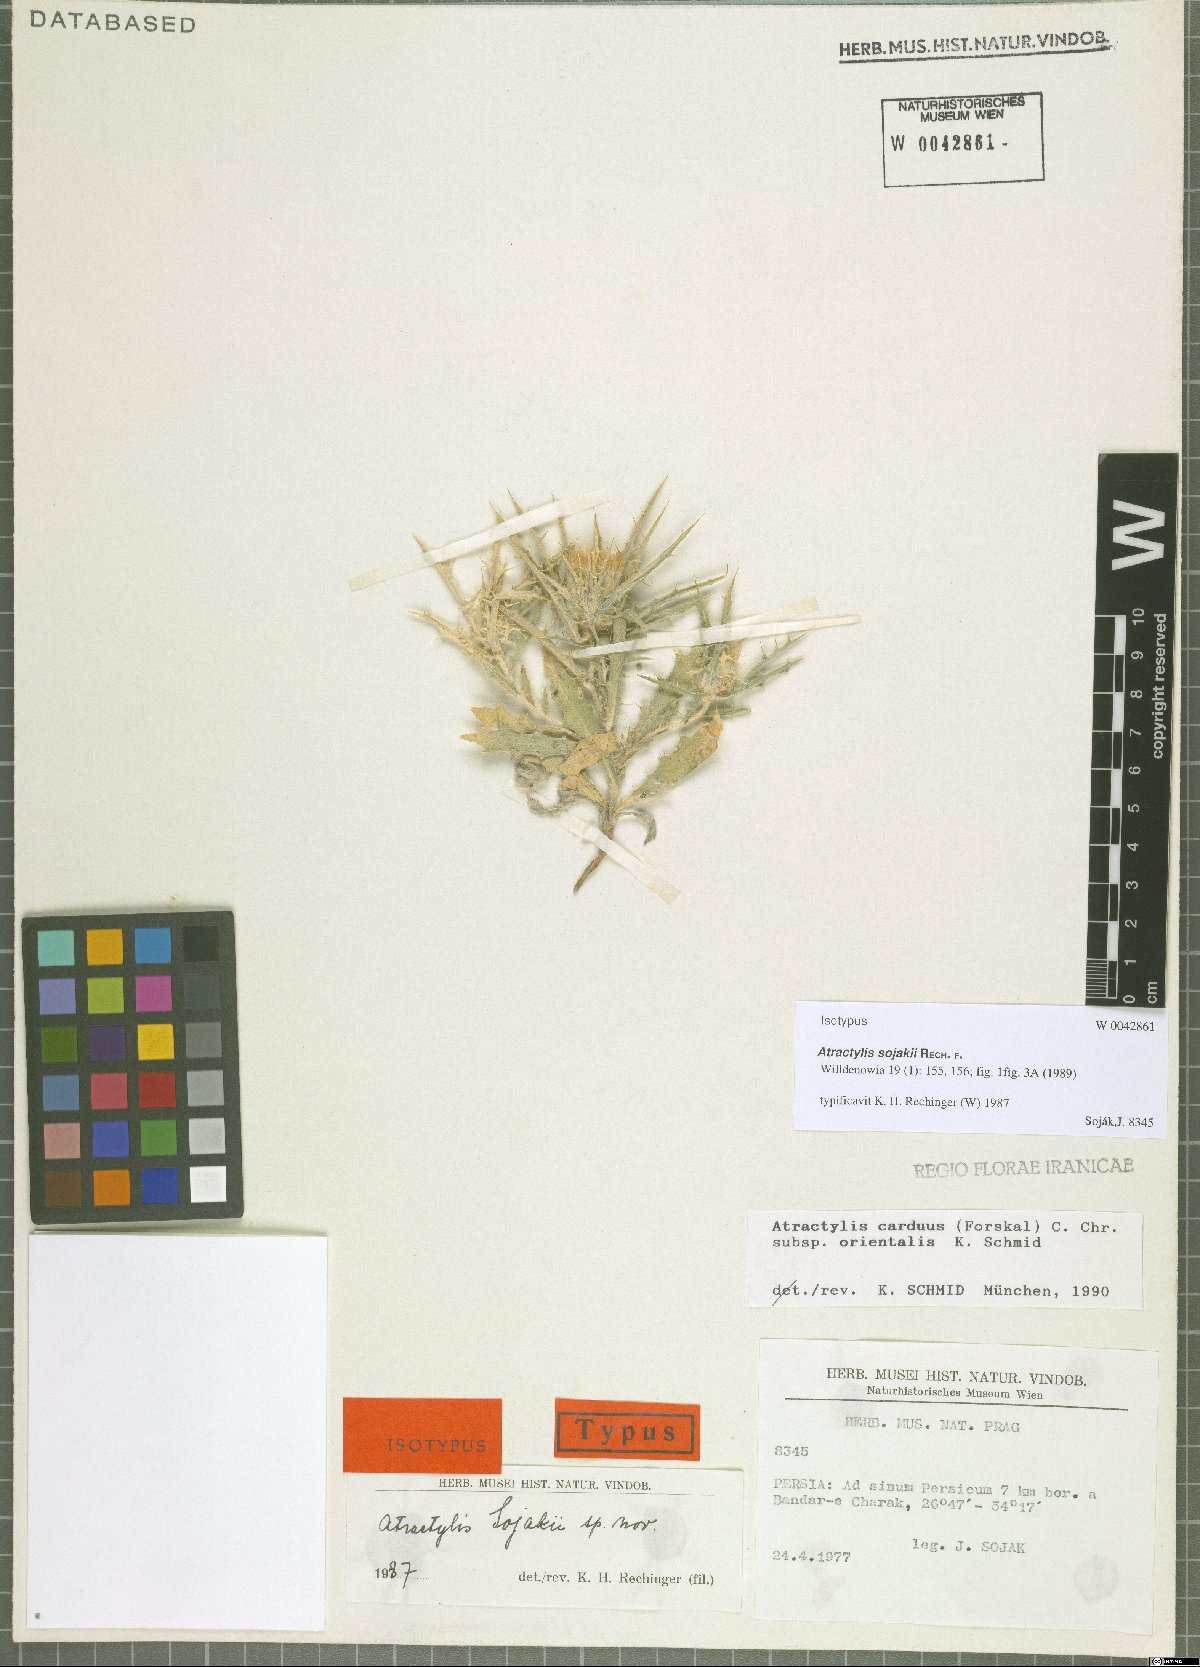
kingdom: Plantae
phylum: Tracheophyta
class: Magnoliopsida
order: Asterales
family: Asteraceae
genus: Atractylis
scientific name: Atractylis sojakii
